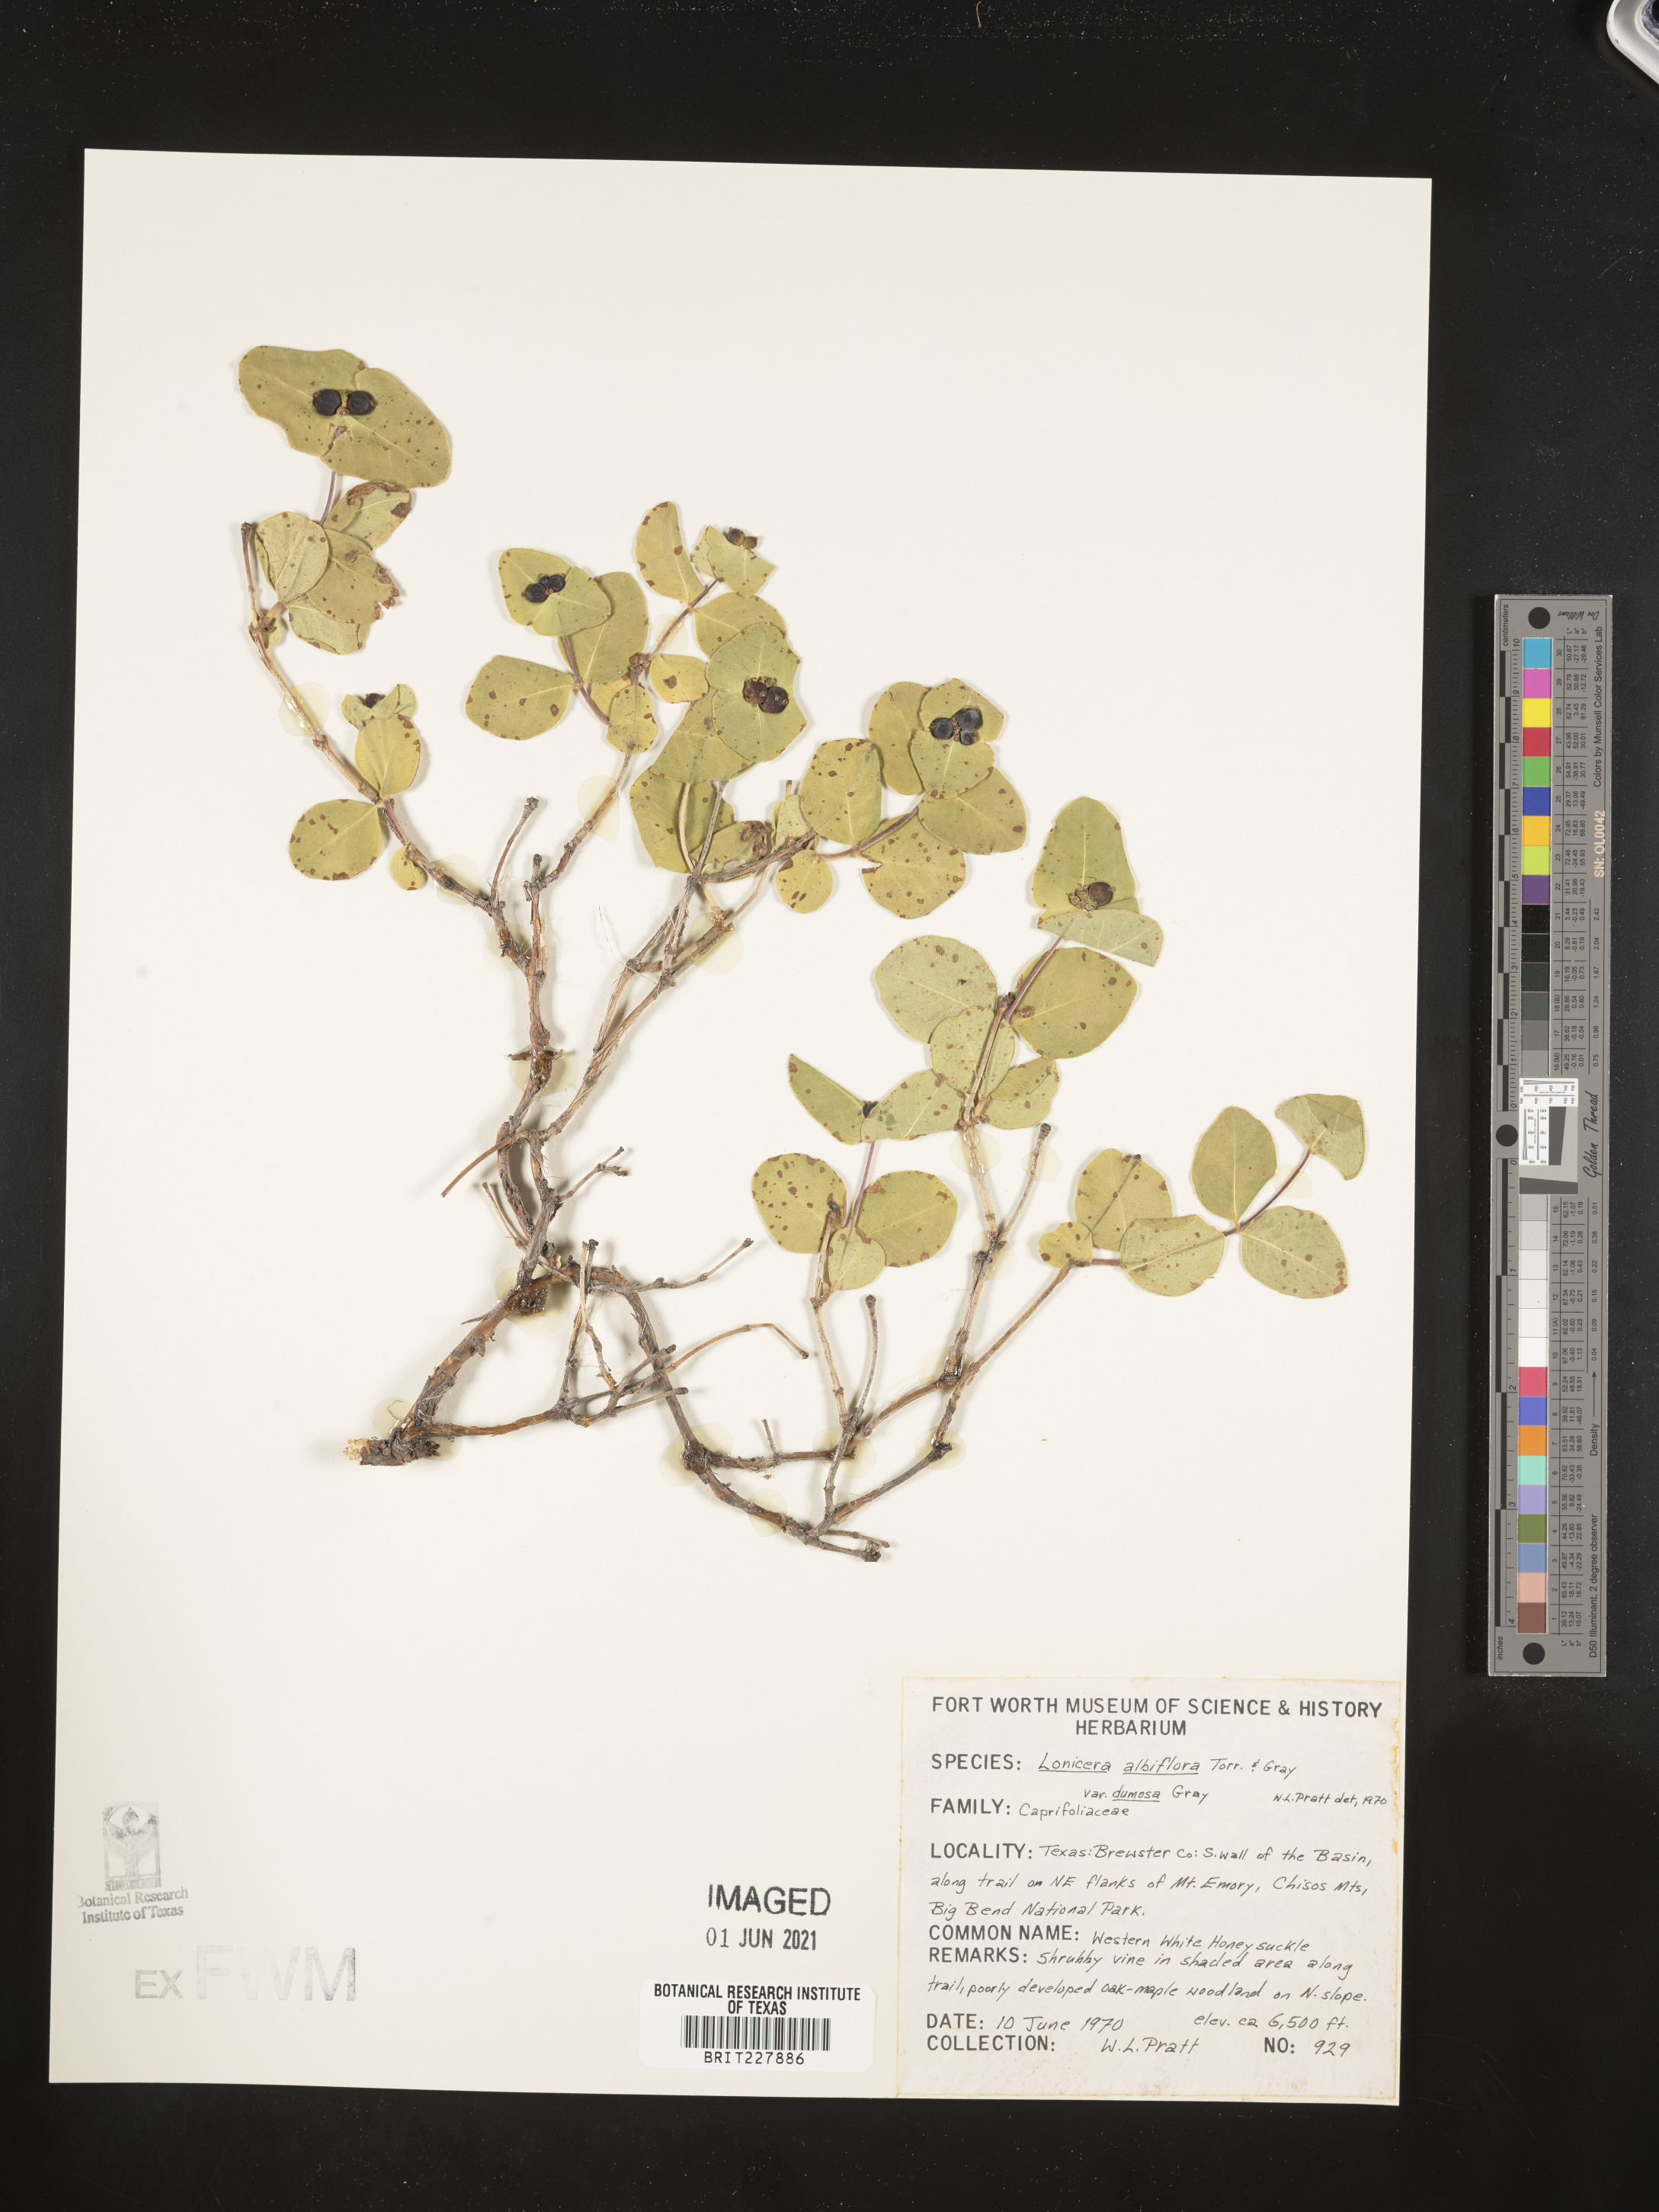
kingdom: Plantae
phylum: Tracheophyta
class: Magnoliopsida
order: Dipsacales
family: Caprifoliaceae
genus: Lonicera
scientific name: Lonicera albiflora
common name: White honeysuckle
